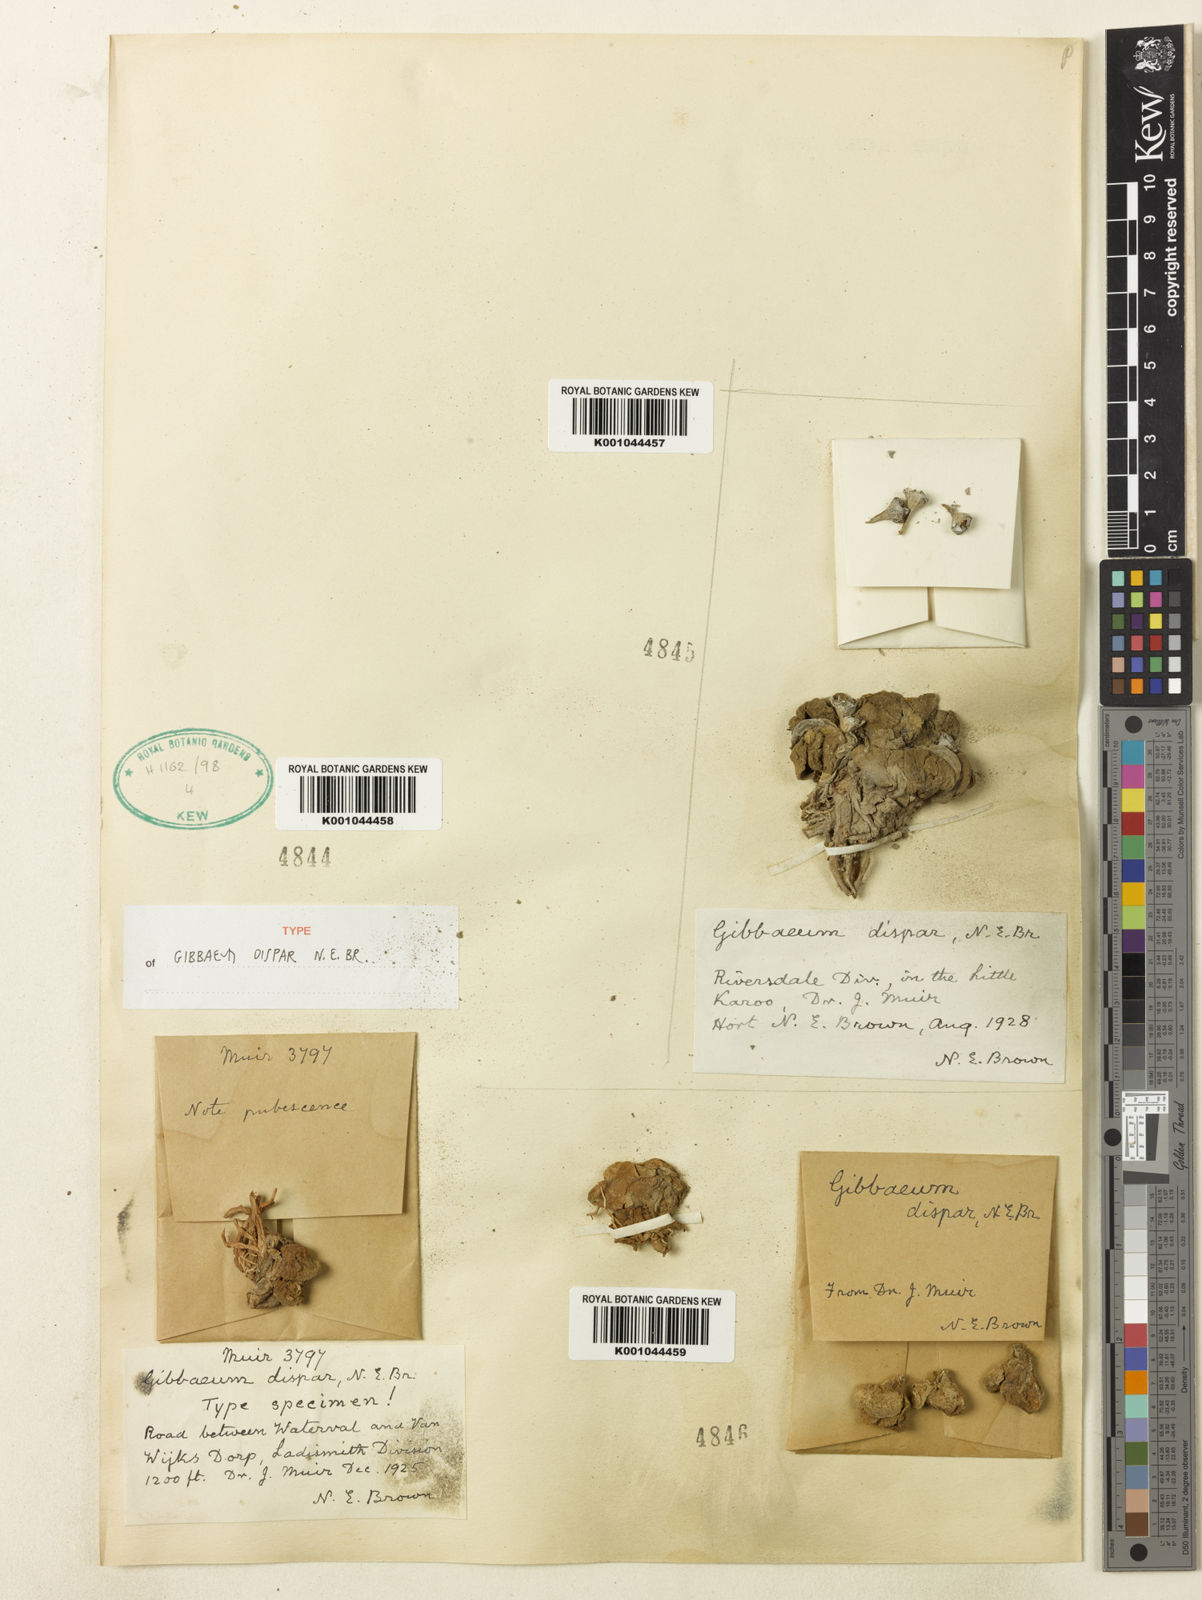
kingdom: Plantae
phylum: Tracheophyta
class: Magnoliopsida
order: Caryophyllales
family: Aizoaceae
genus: Gibbaeum
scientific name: Gibbaeum dispar
